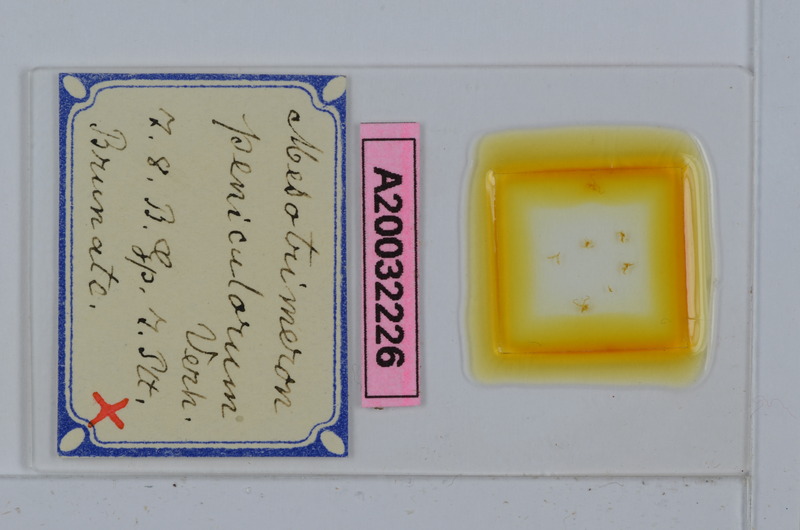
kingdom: Animalia
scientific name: Animalia
